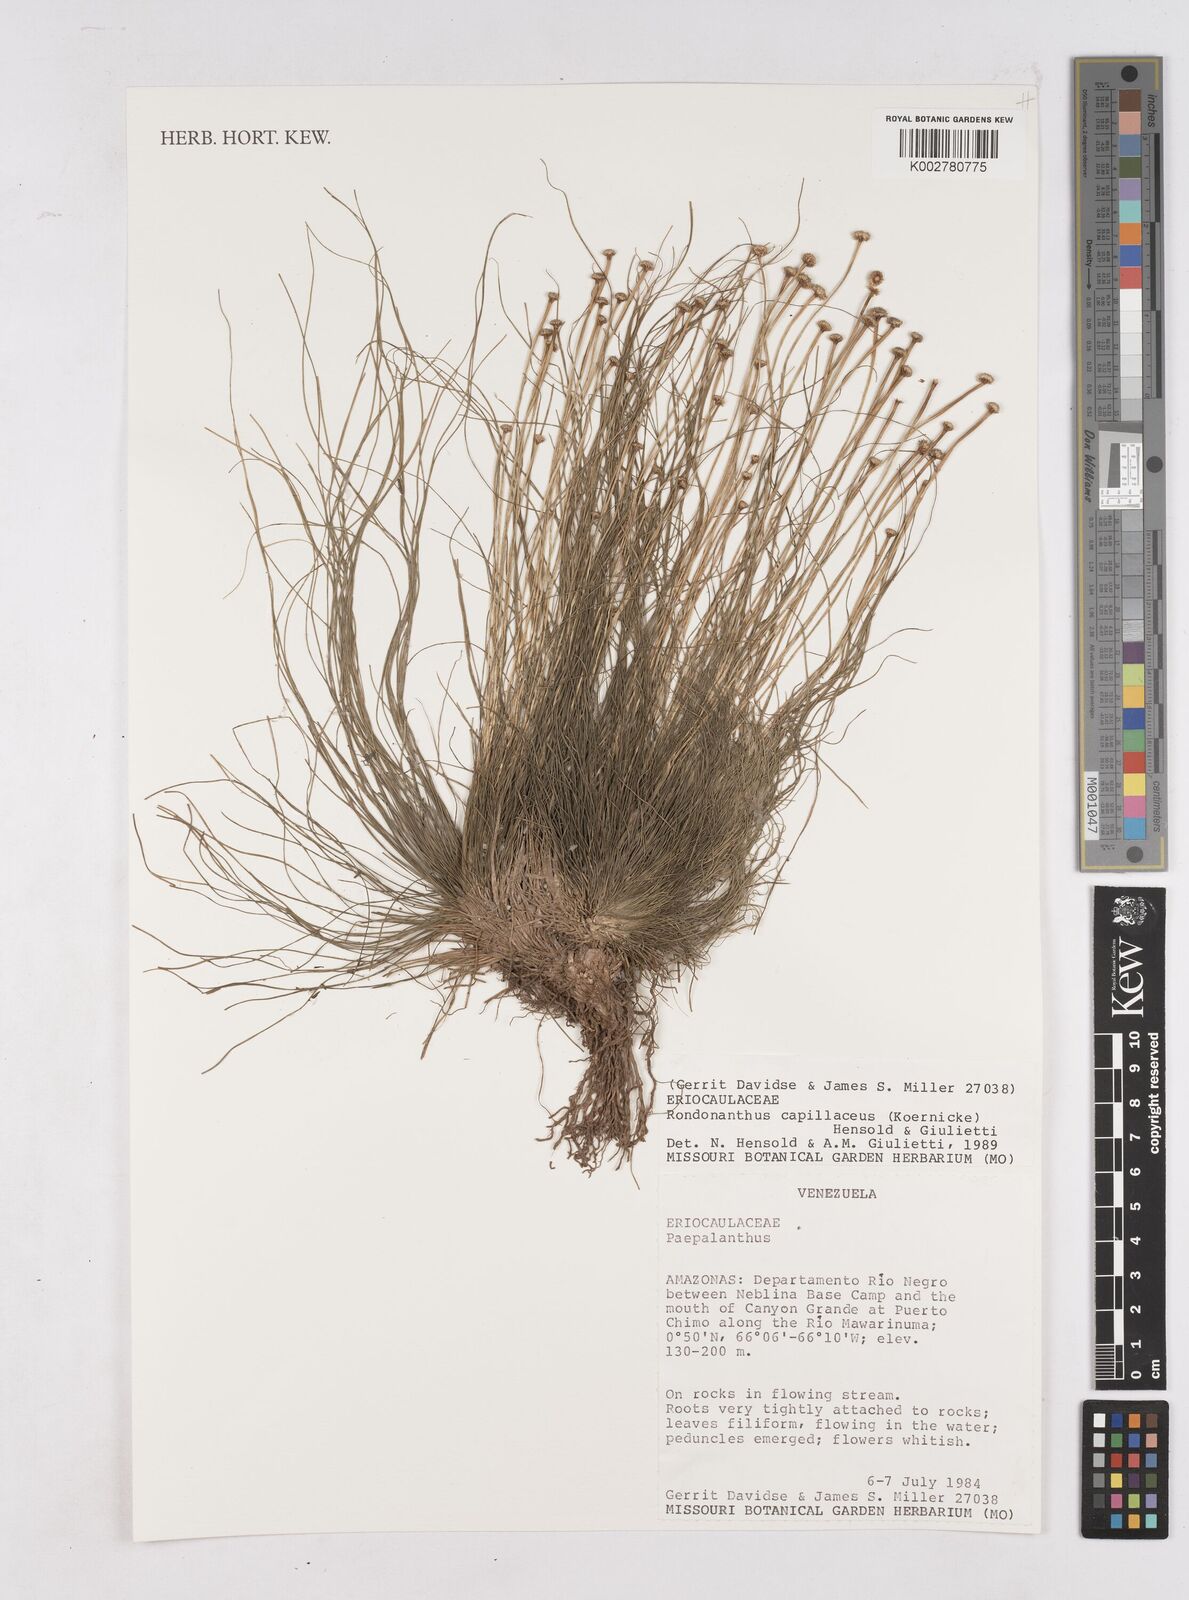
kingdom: Plantae
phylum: Tracheophyta
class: Liliopsida
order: Poales
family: Eriocaulaceae
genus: Rondonanthus
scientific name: Rondonanthus capillaceus
